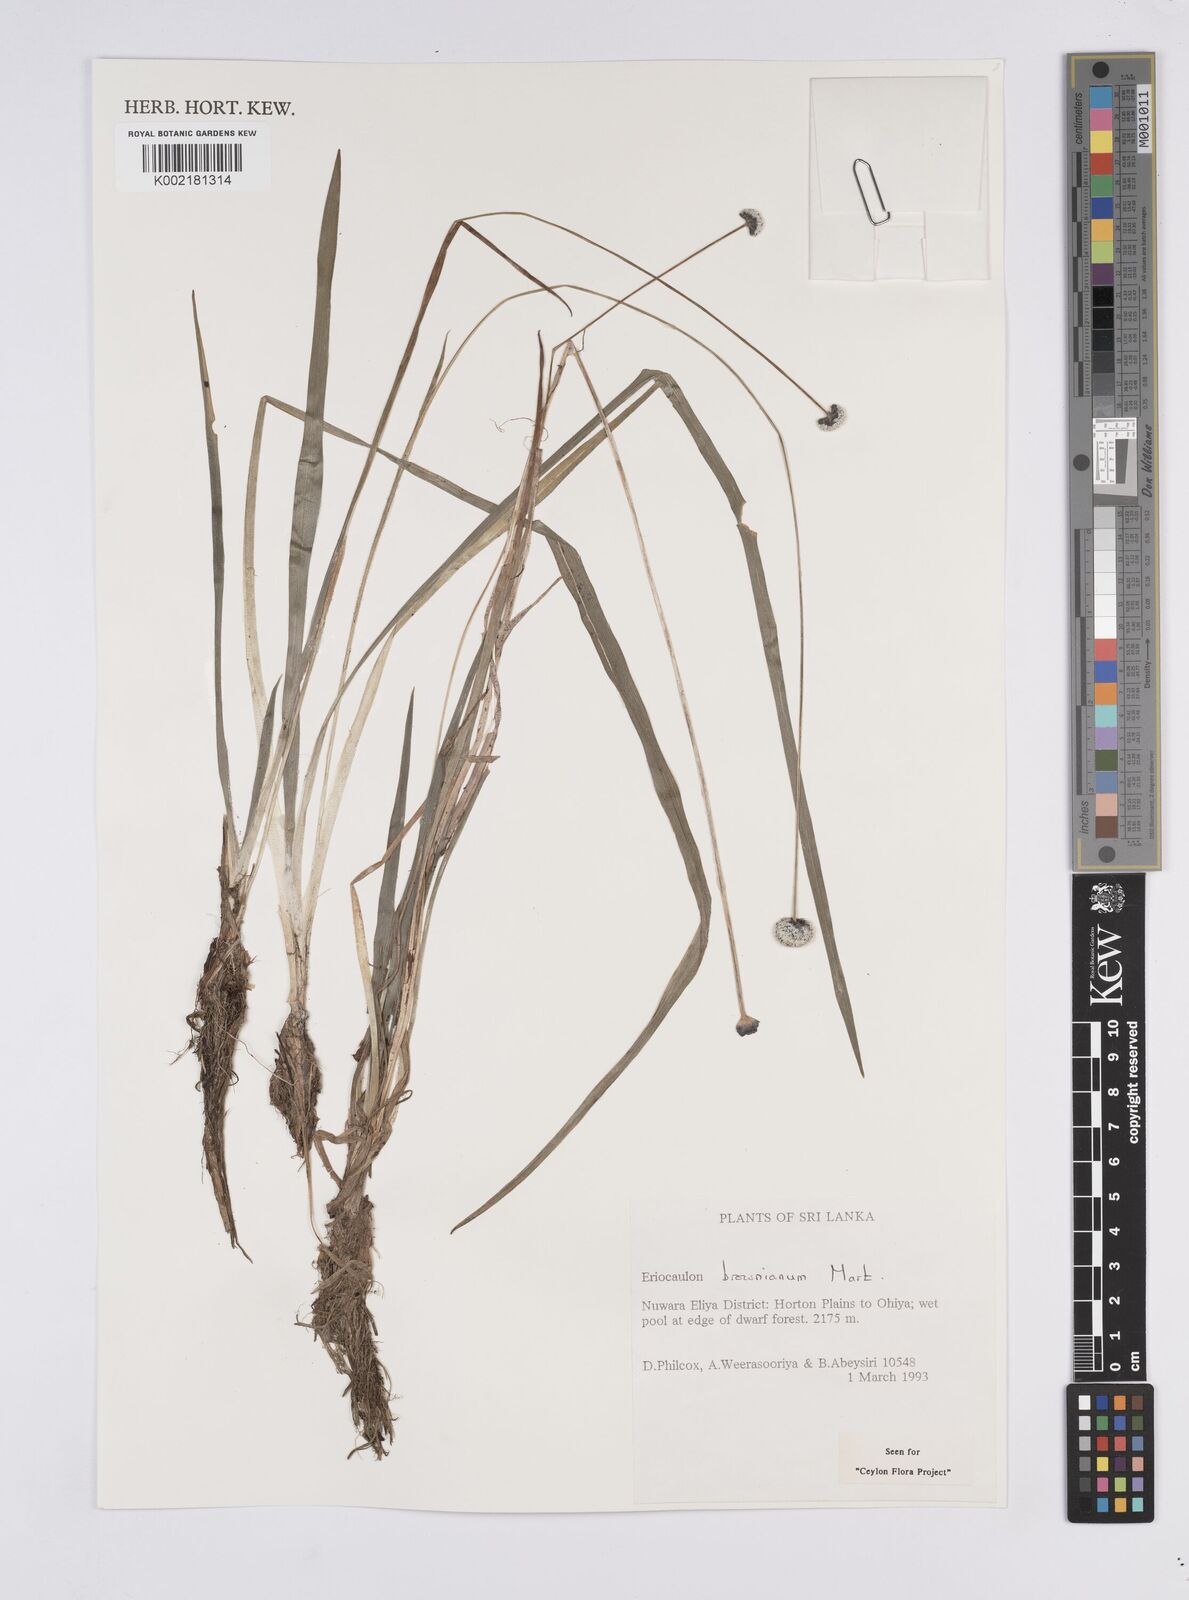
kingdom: Plantae
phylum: Tracheophyta
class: Liliopsida
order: Poales
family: Eriocaulaceae
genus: Eriocaulon
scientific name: Eriocaulon brownianum
